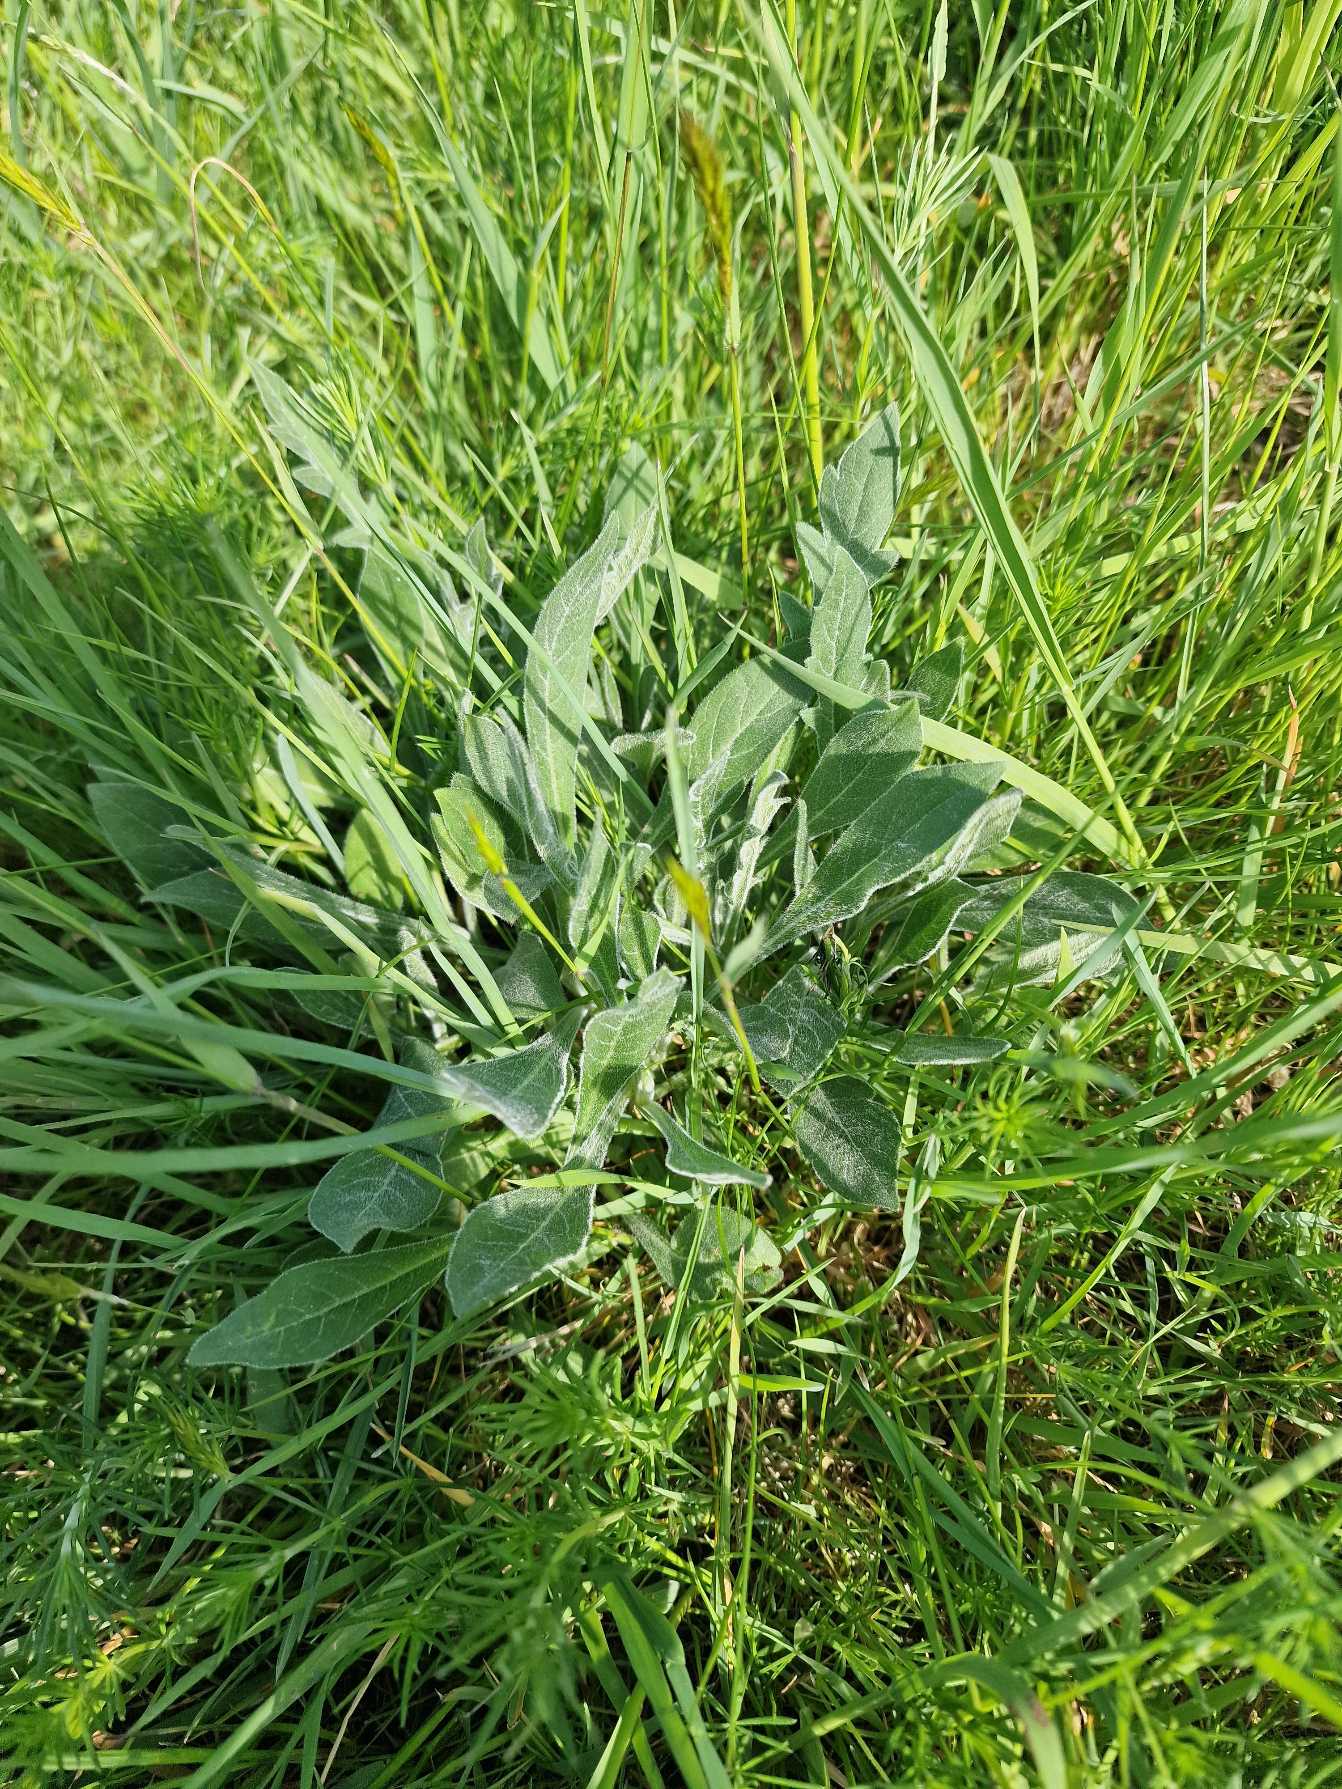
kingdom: Plantae
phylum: Tracheophyta
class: Magnoliopsida
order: Dipsacales
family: Caprifoliaceae
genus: Knautia
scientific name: Knautia arvensis
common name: Blåhat
